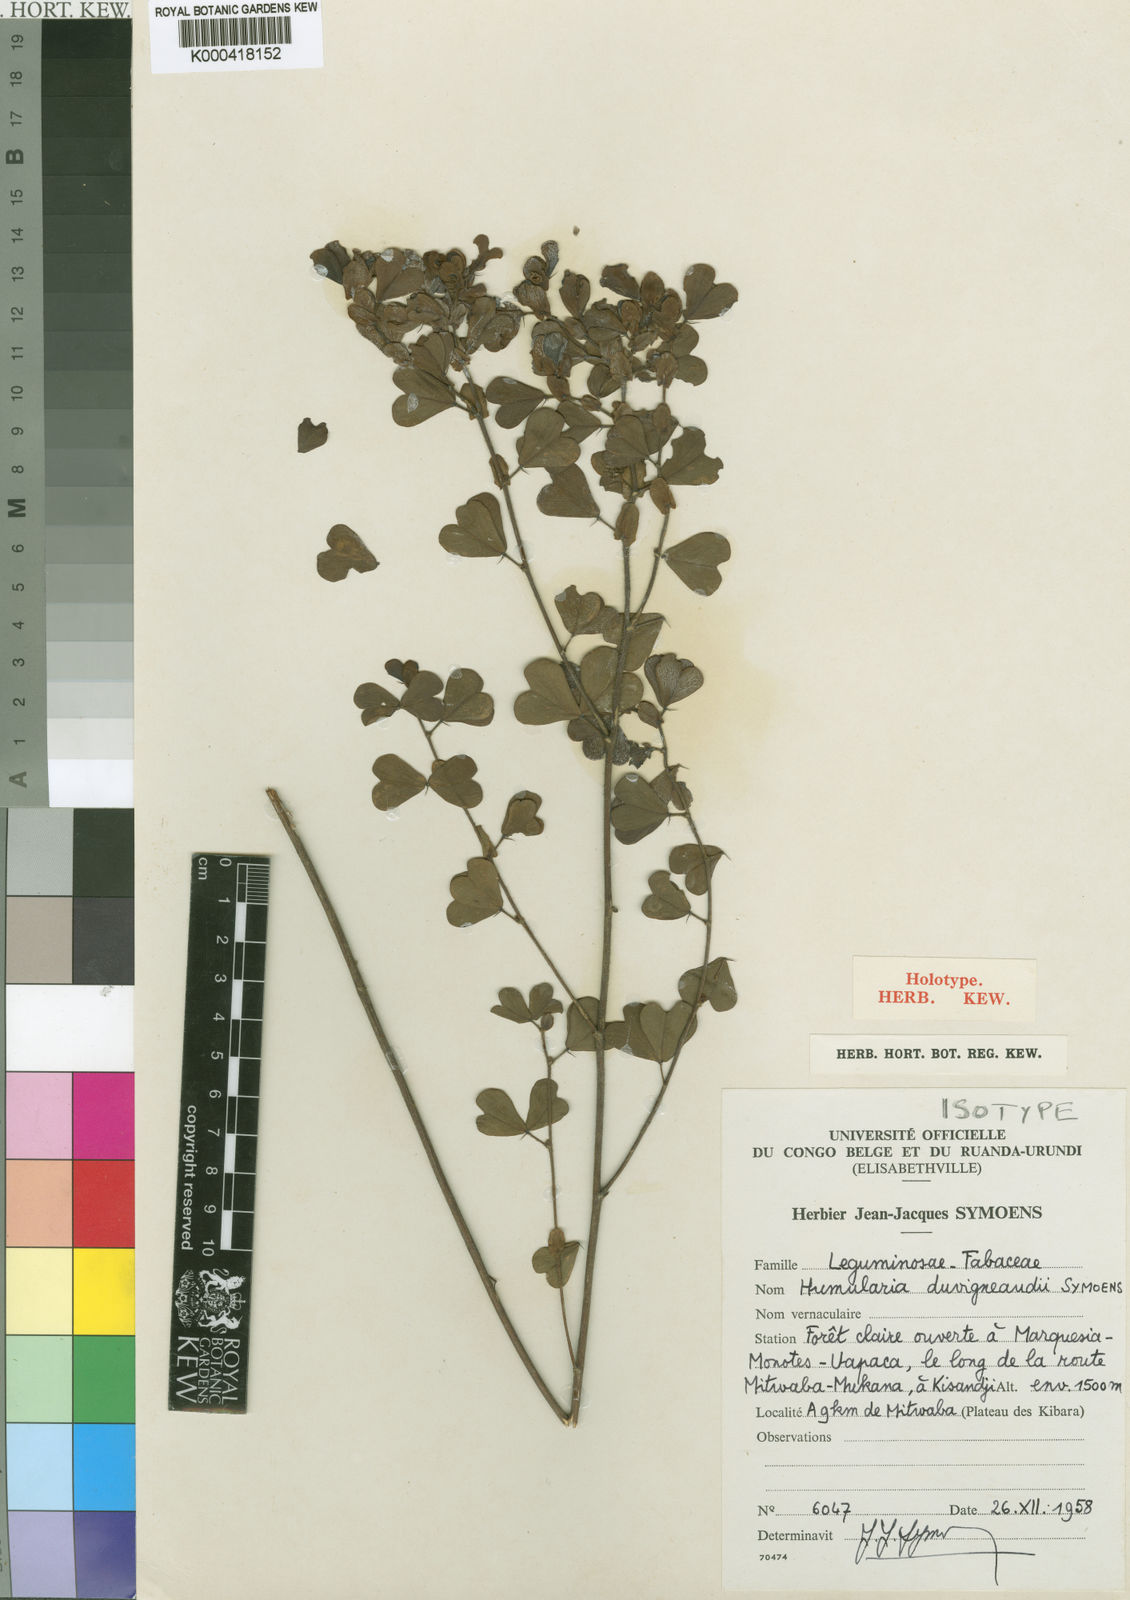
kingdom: Plantae
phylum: Tracheophyta
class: Magnoliopsida
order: Fabales
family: Fabaceae
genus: Humularia
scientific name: Humularia duvigneaudii
